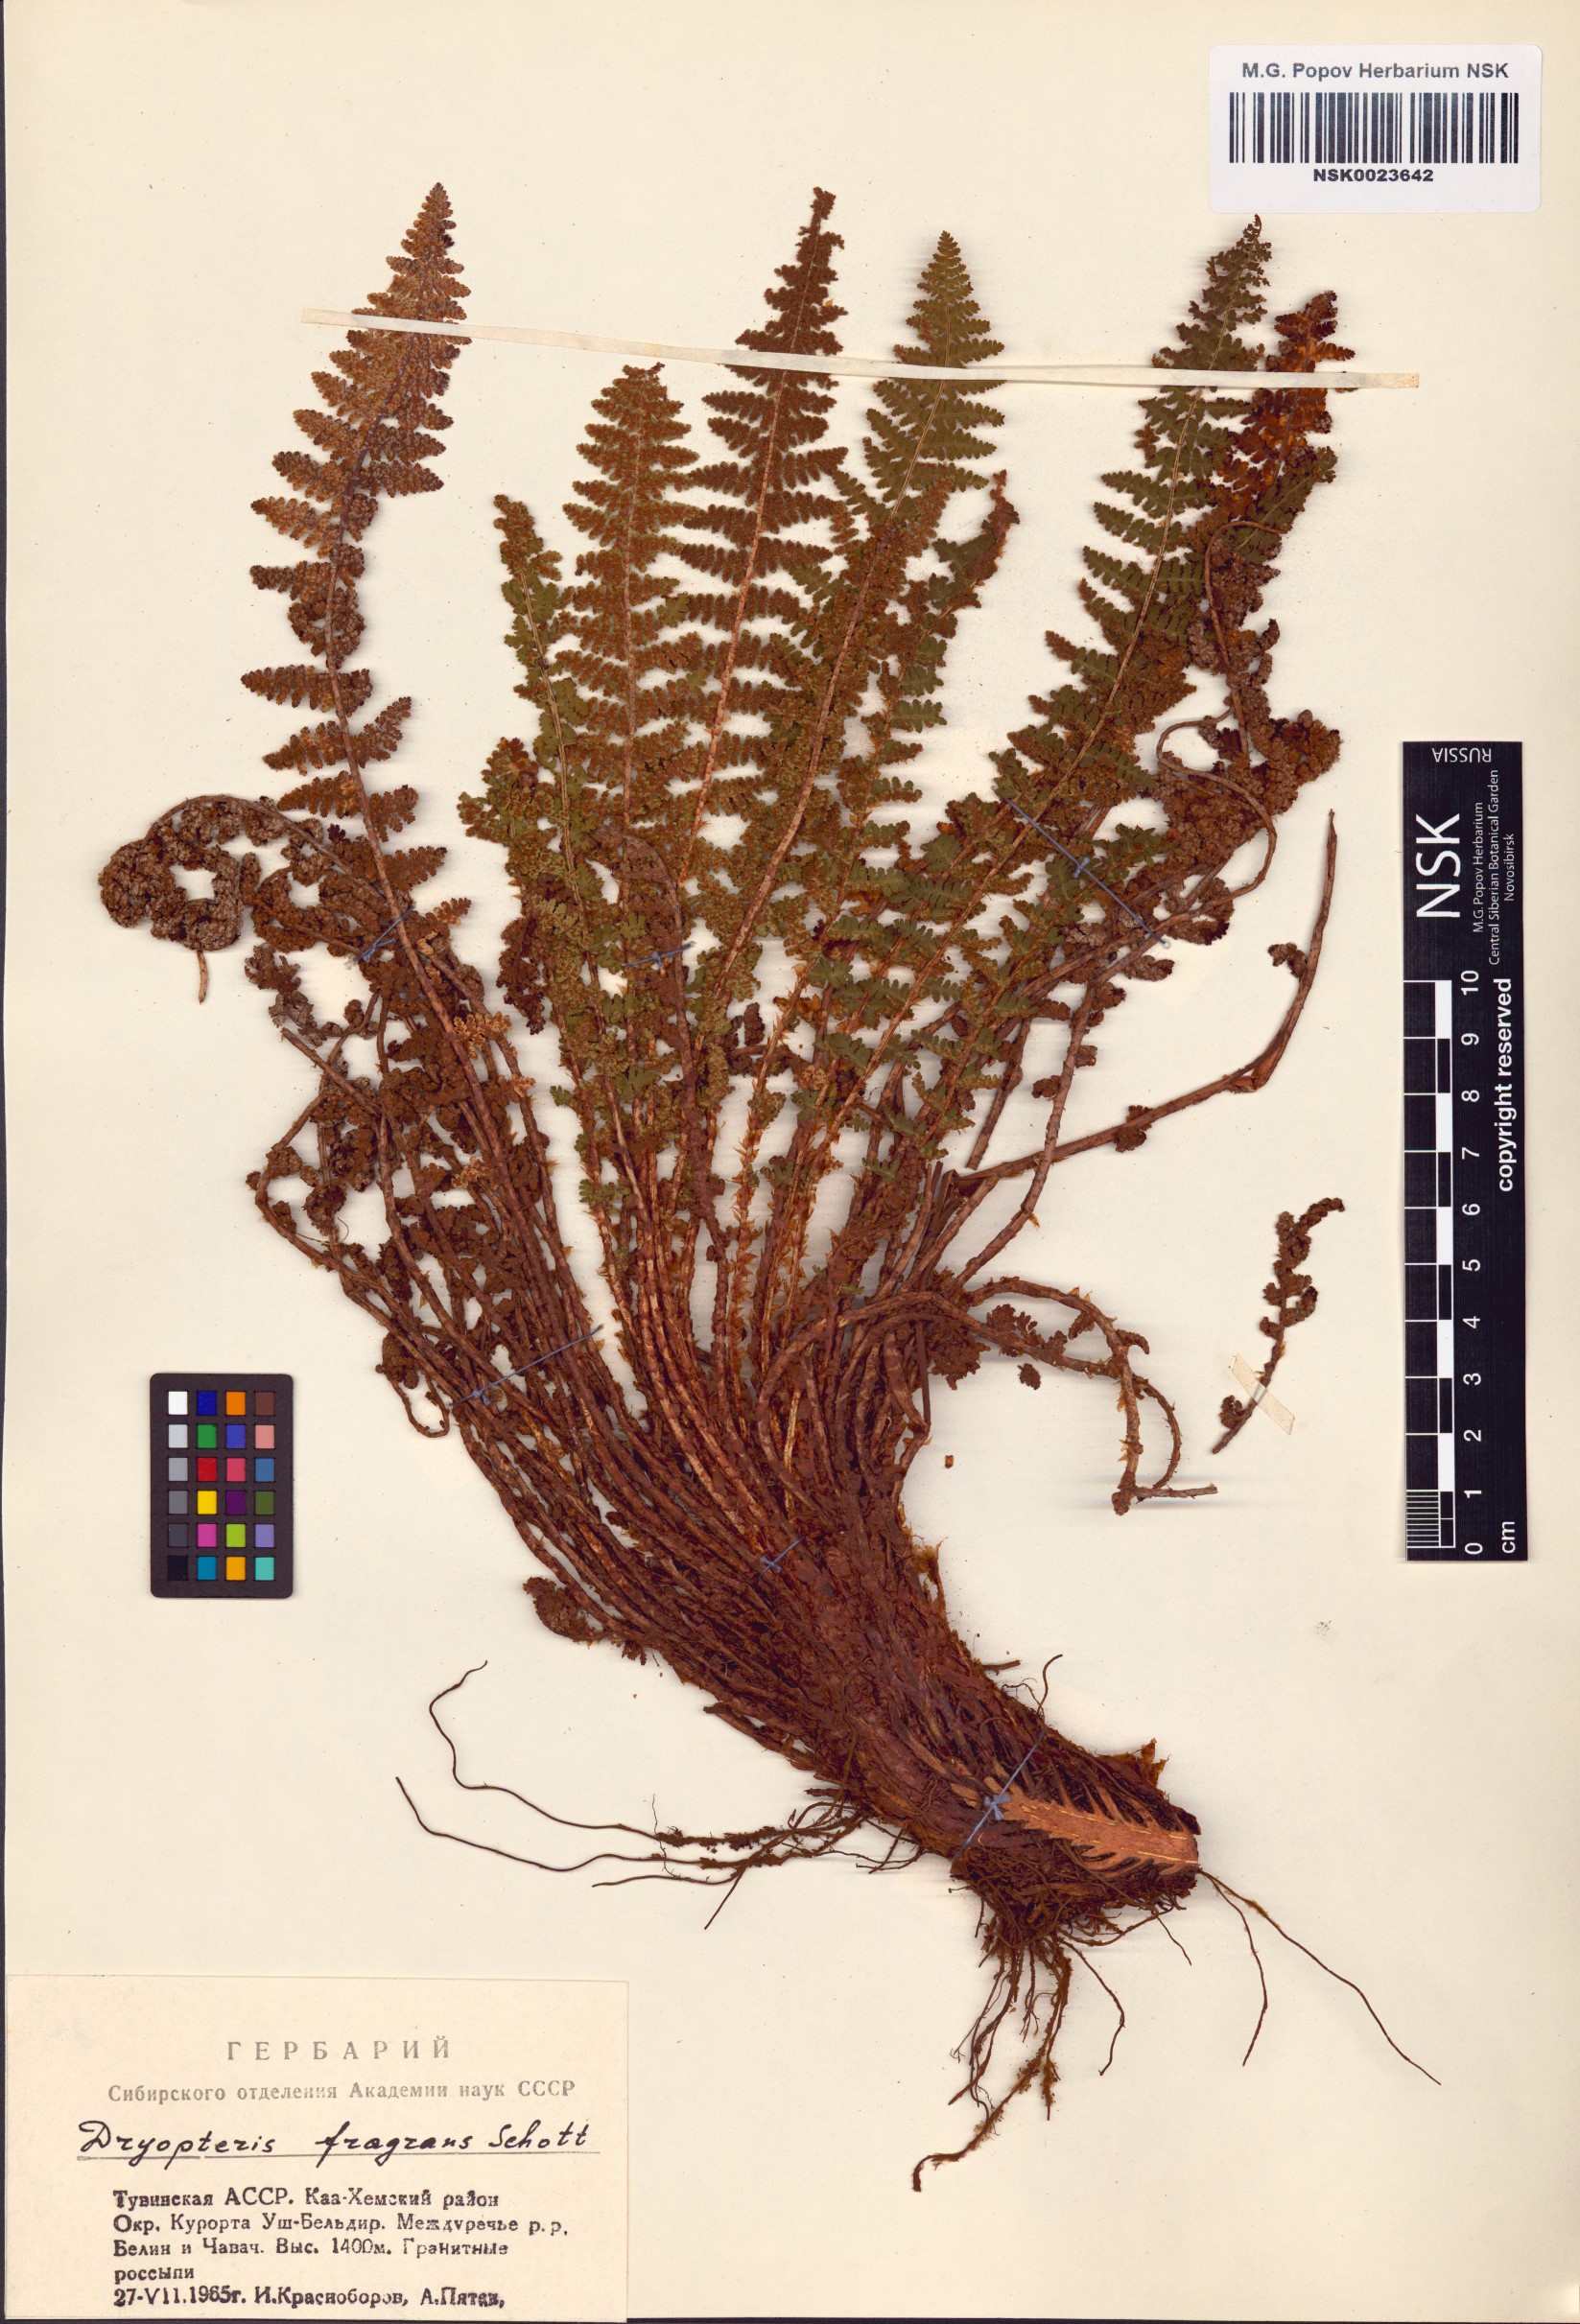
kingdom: Plantae
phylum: Tracheophyta
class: Polypodiopsida
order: Polypodiales
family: Dryopteridaceae
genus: Dryopteris
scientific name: Dryopteris fragrans
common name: Fragrant wood fern
